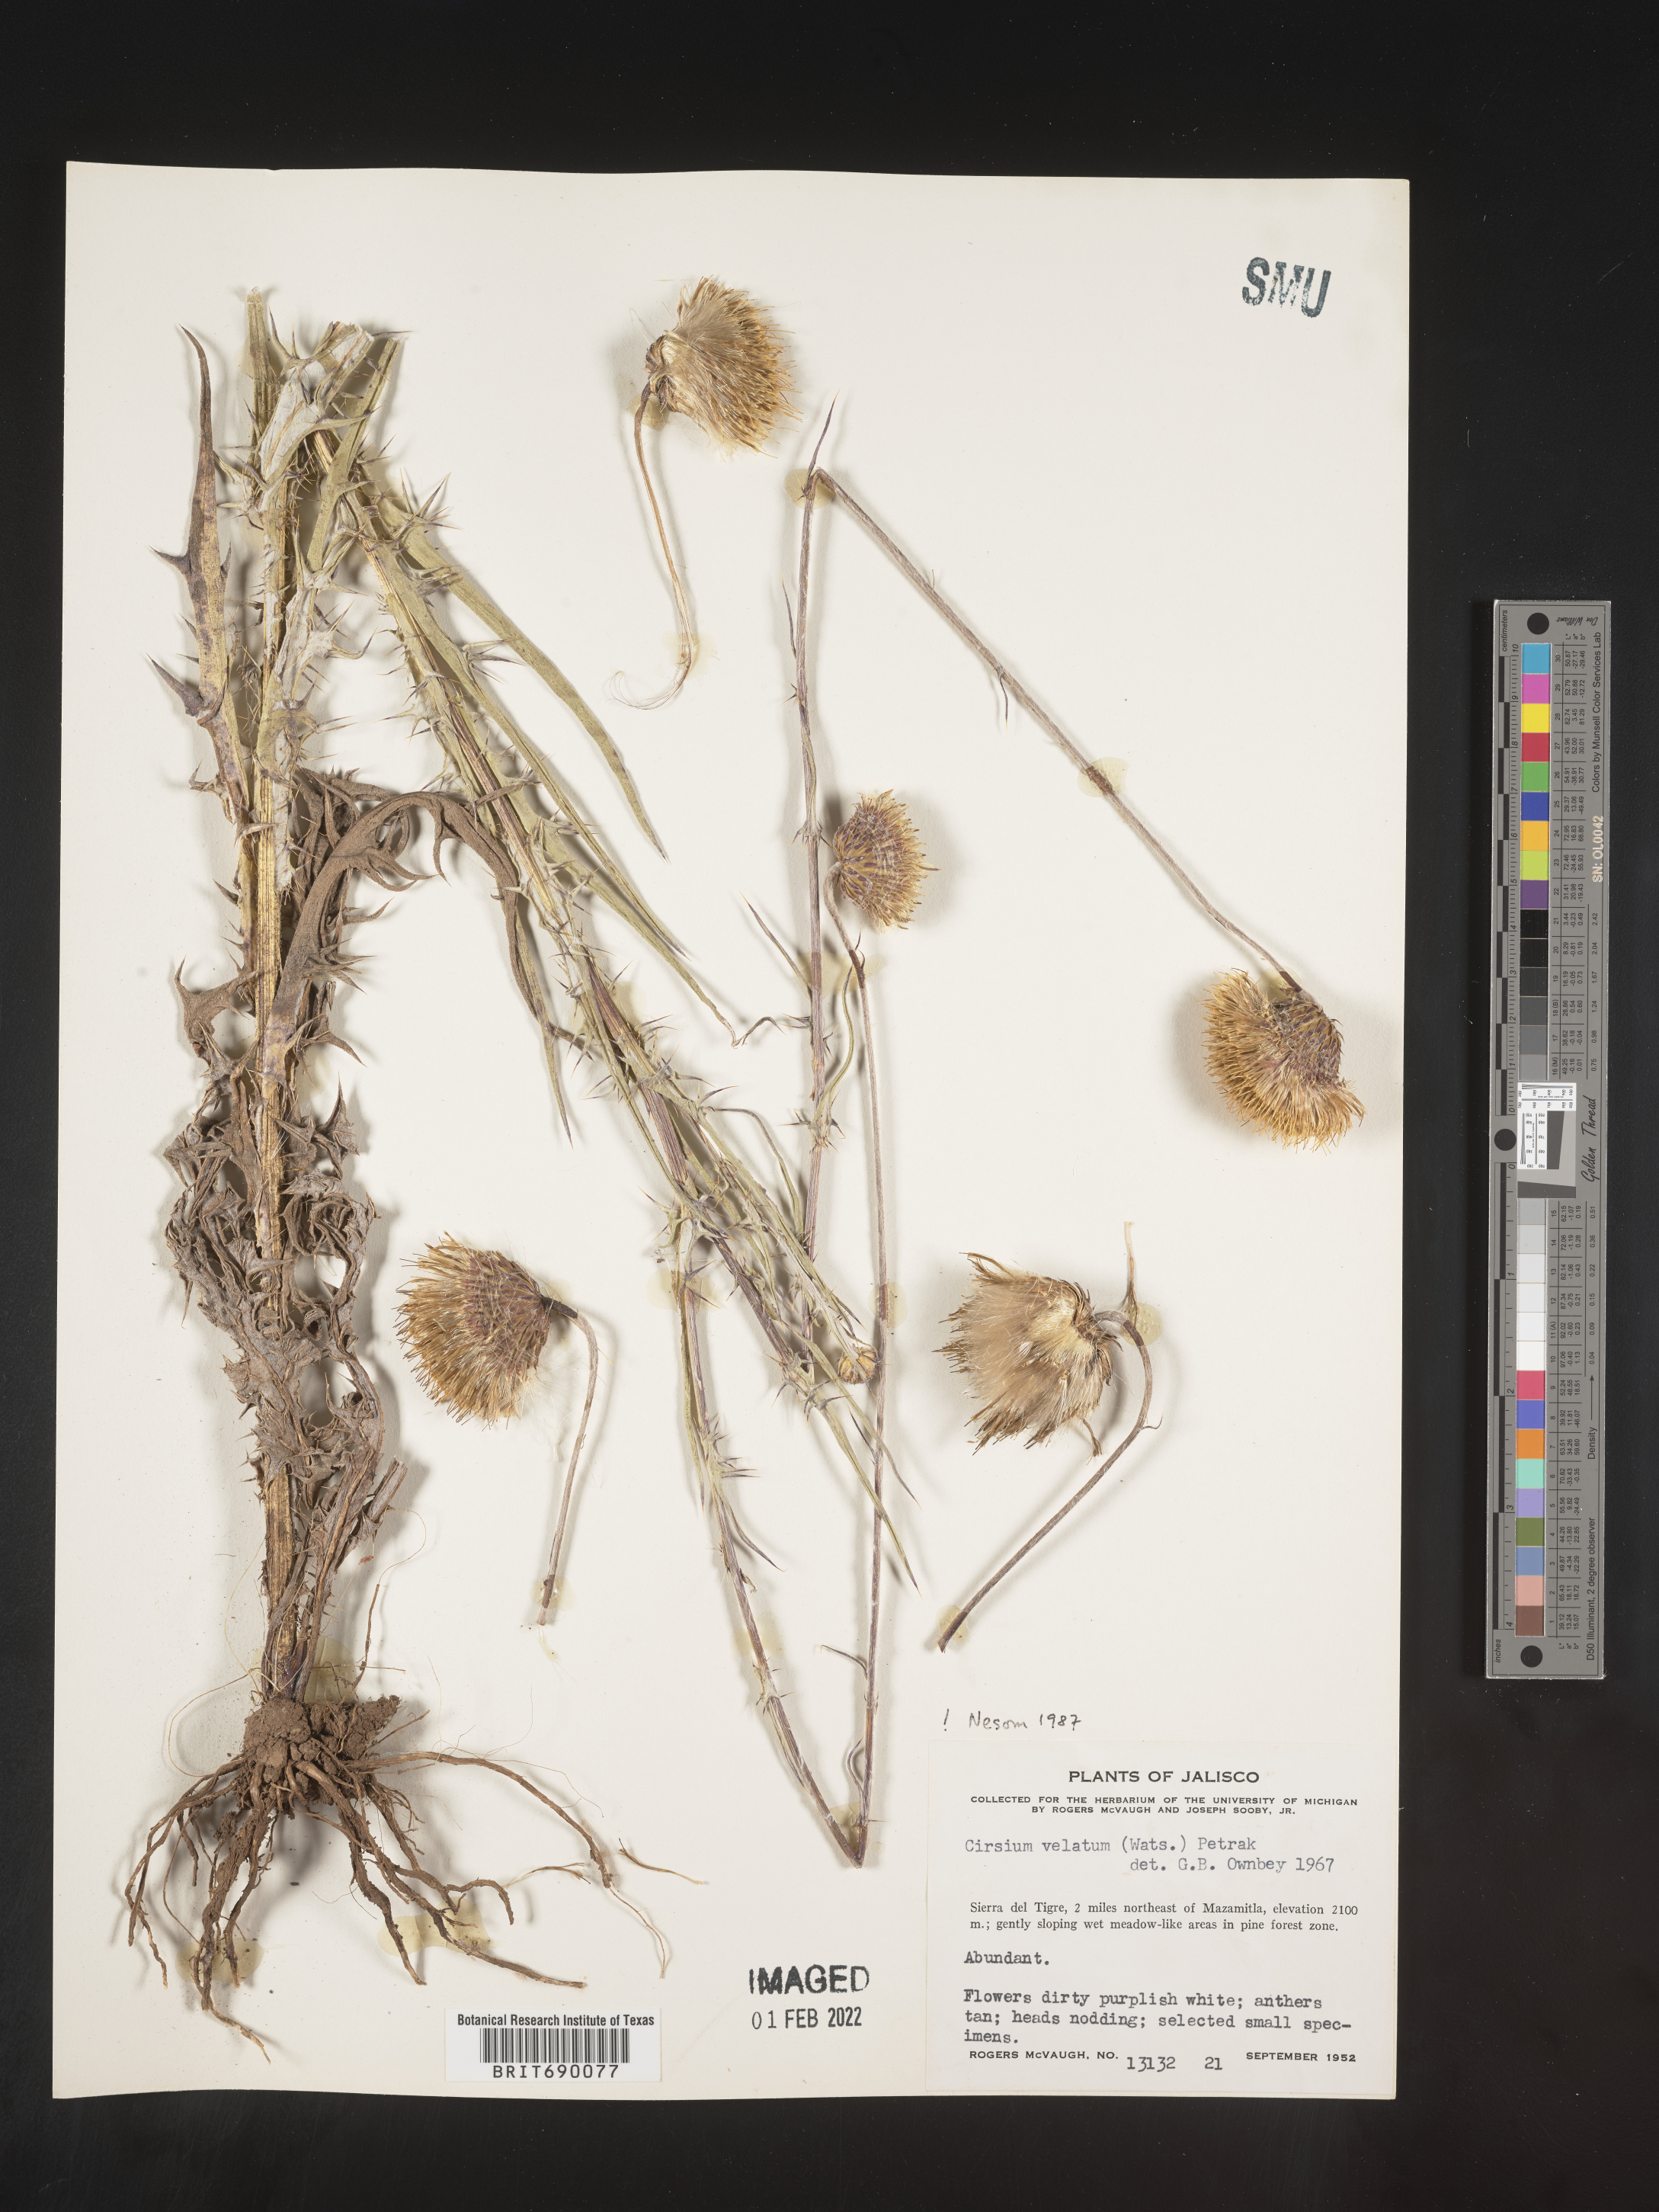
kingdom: Plantae
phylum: Tracheophyta
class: Magnoliopsida
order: Asterales
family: Asteraceae
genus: Cirsium
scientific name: Cirsium
